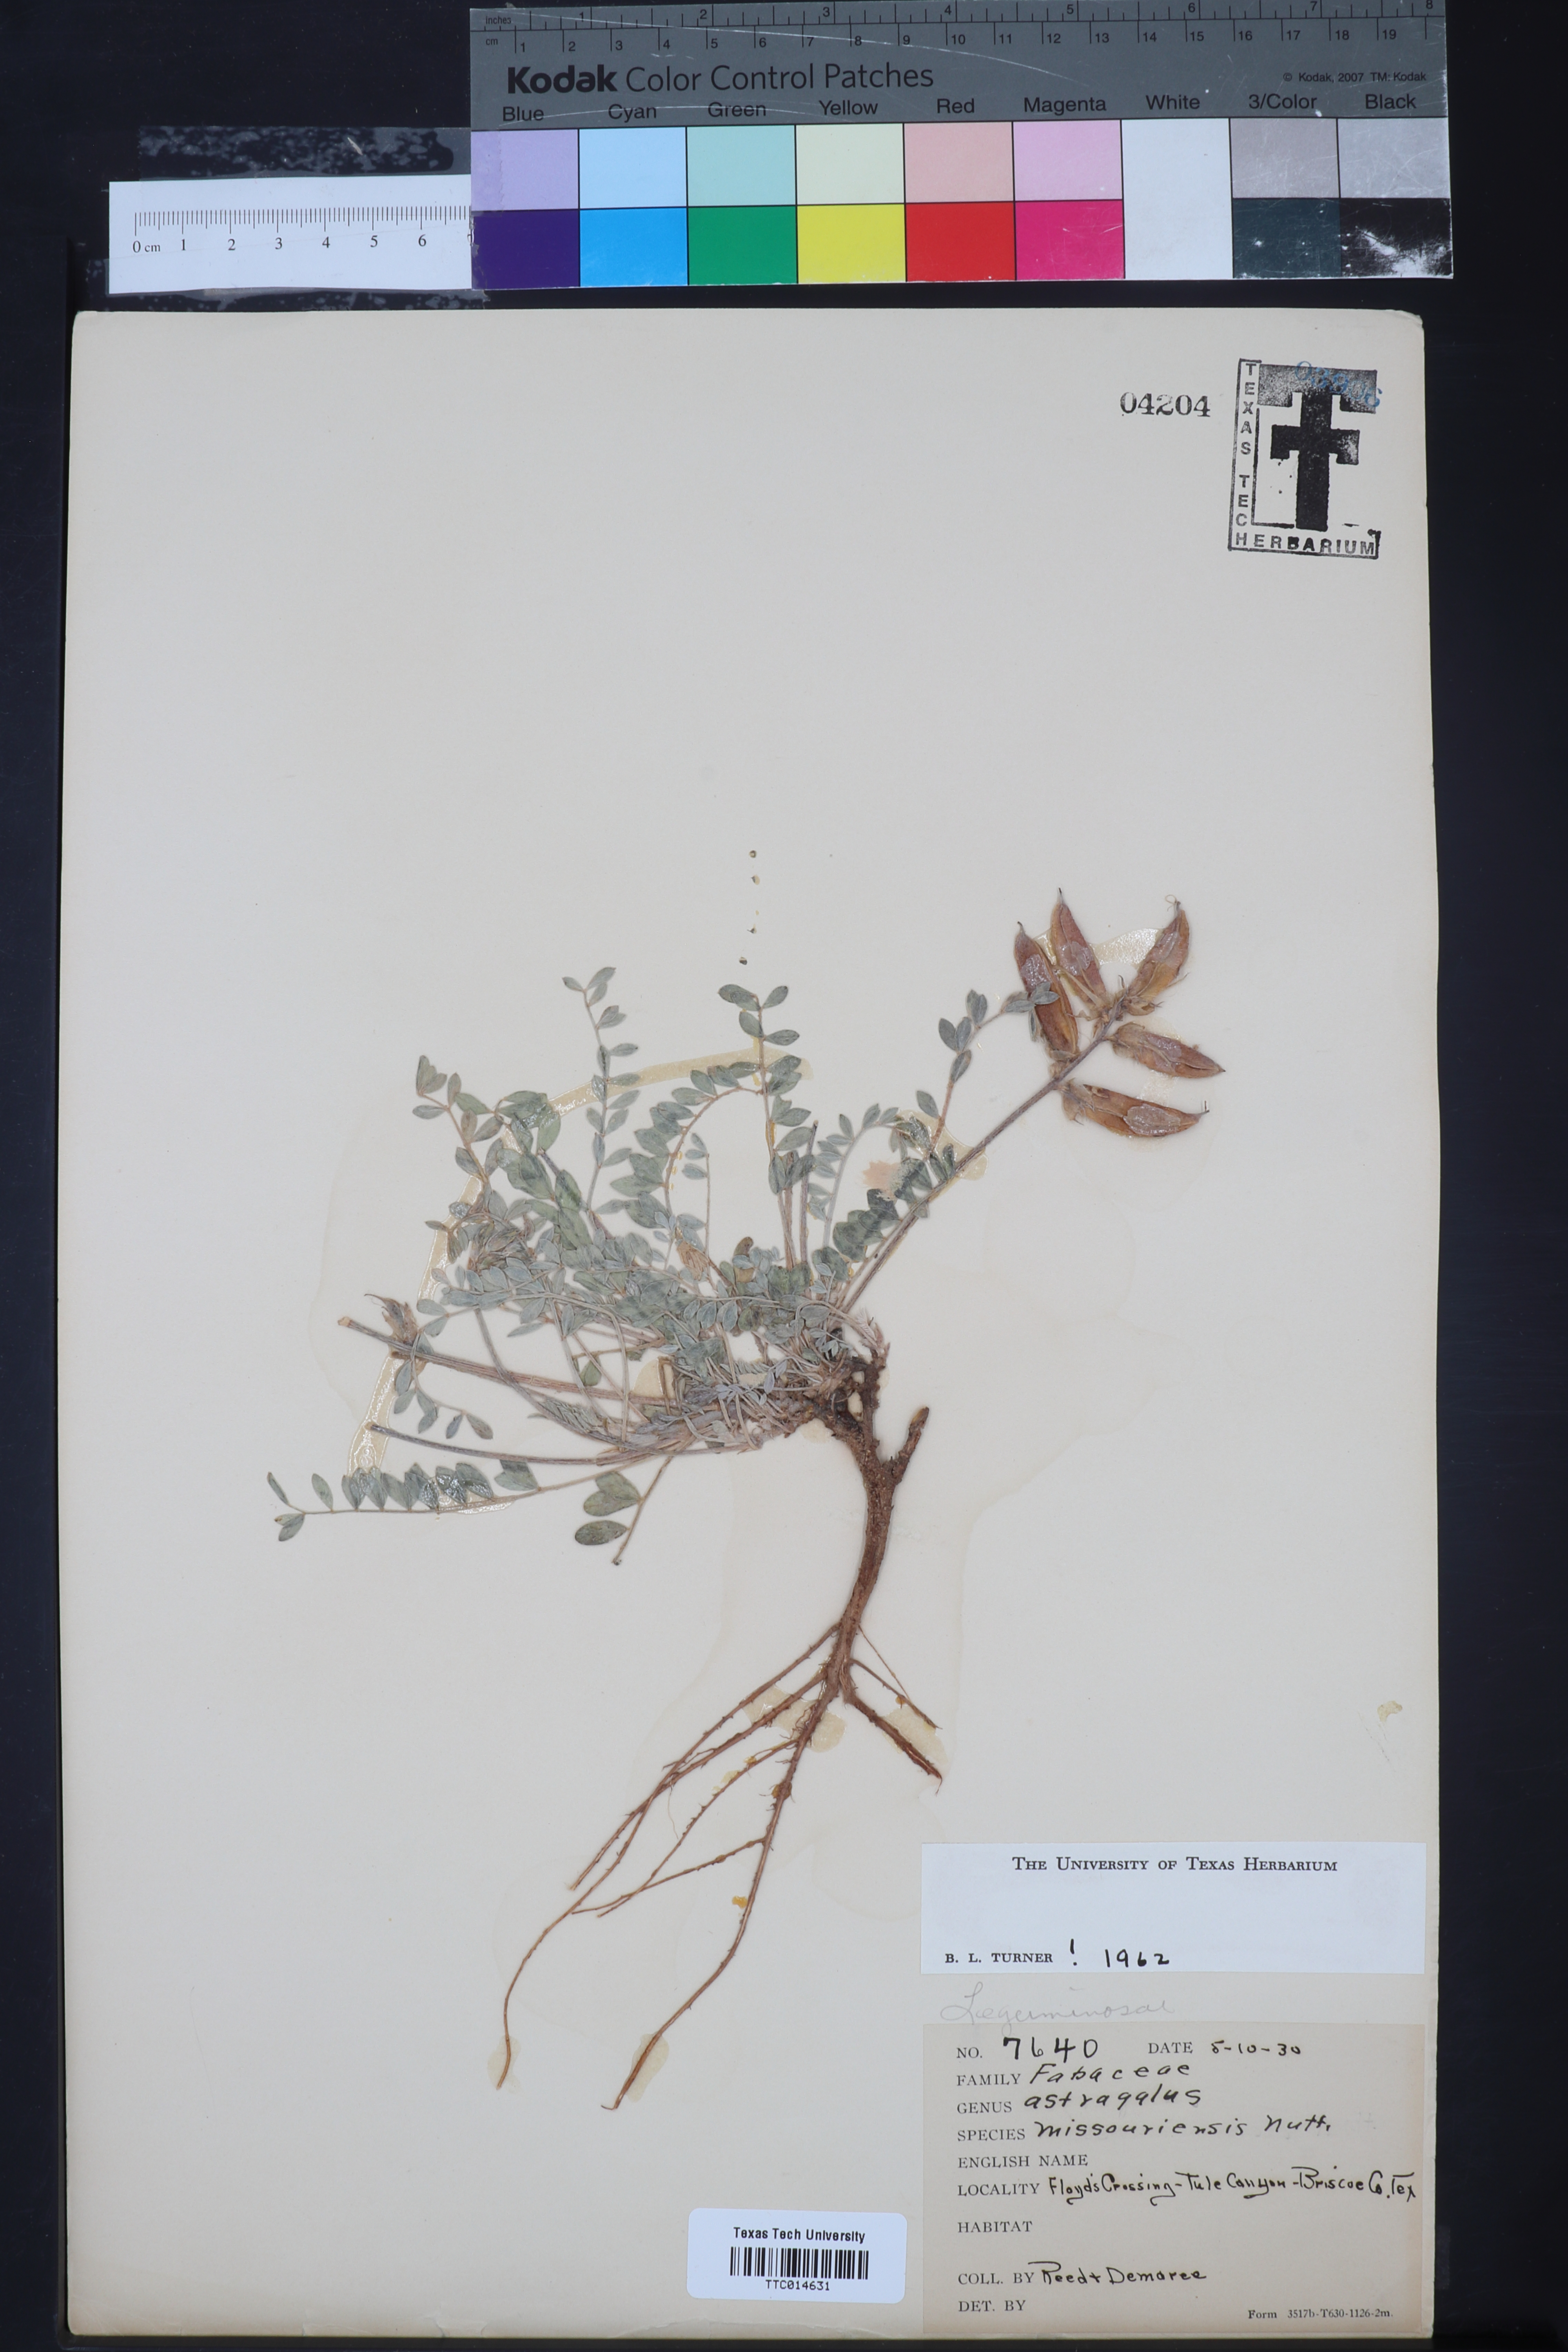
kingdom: Plantae
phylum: Tracheophyta
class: Magnoliopsida
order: Fabales
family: Fabaceae
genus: Astragalus
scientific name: Astragalus missouriensis
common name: Missouri milk-vetch
